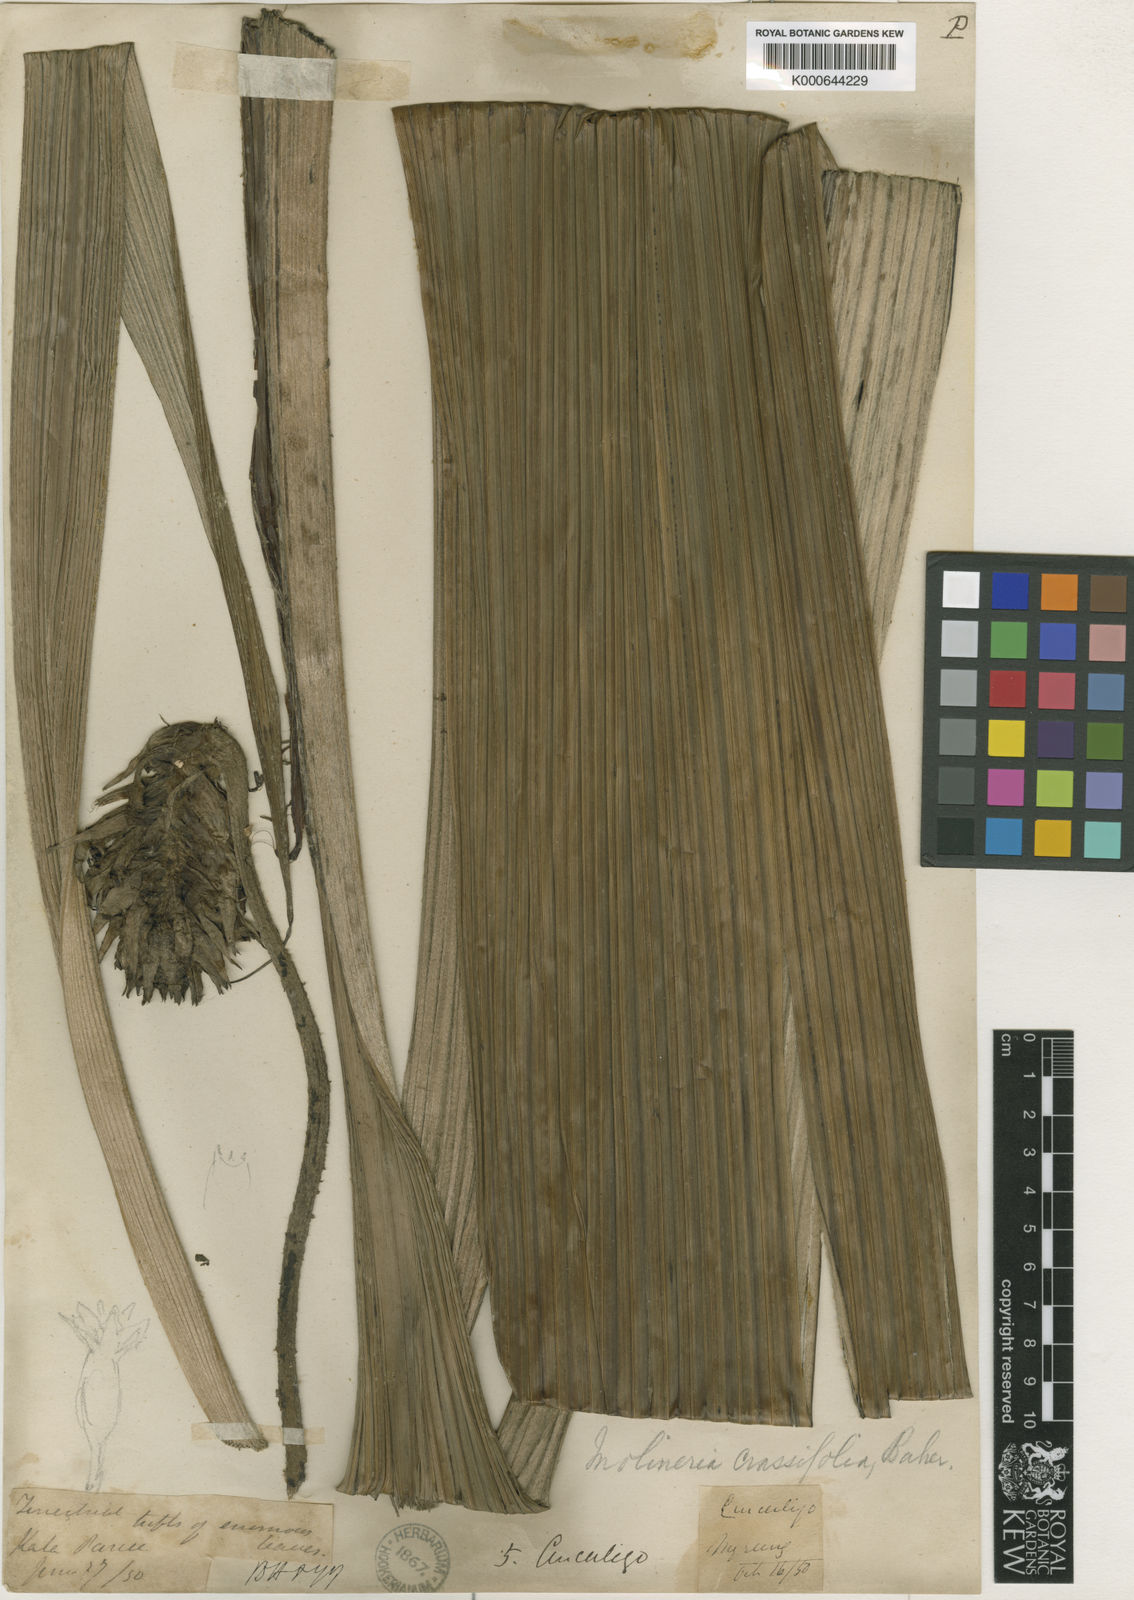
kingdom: Plantae
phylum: Tracheophyta
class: Liliopsida
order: Asparagales
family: Hypoxidaceae
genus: Curculigo
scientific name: Curculigo crassifolia
